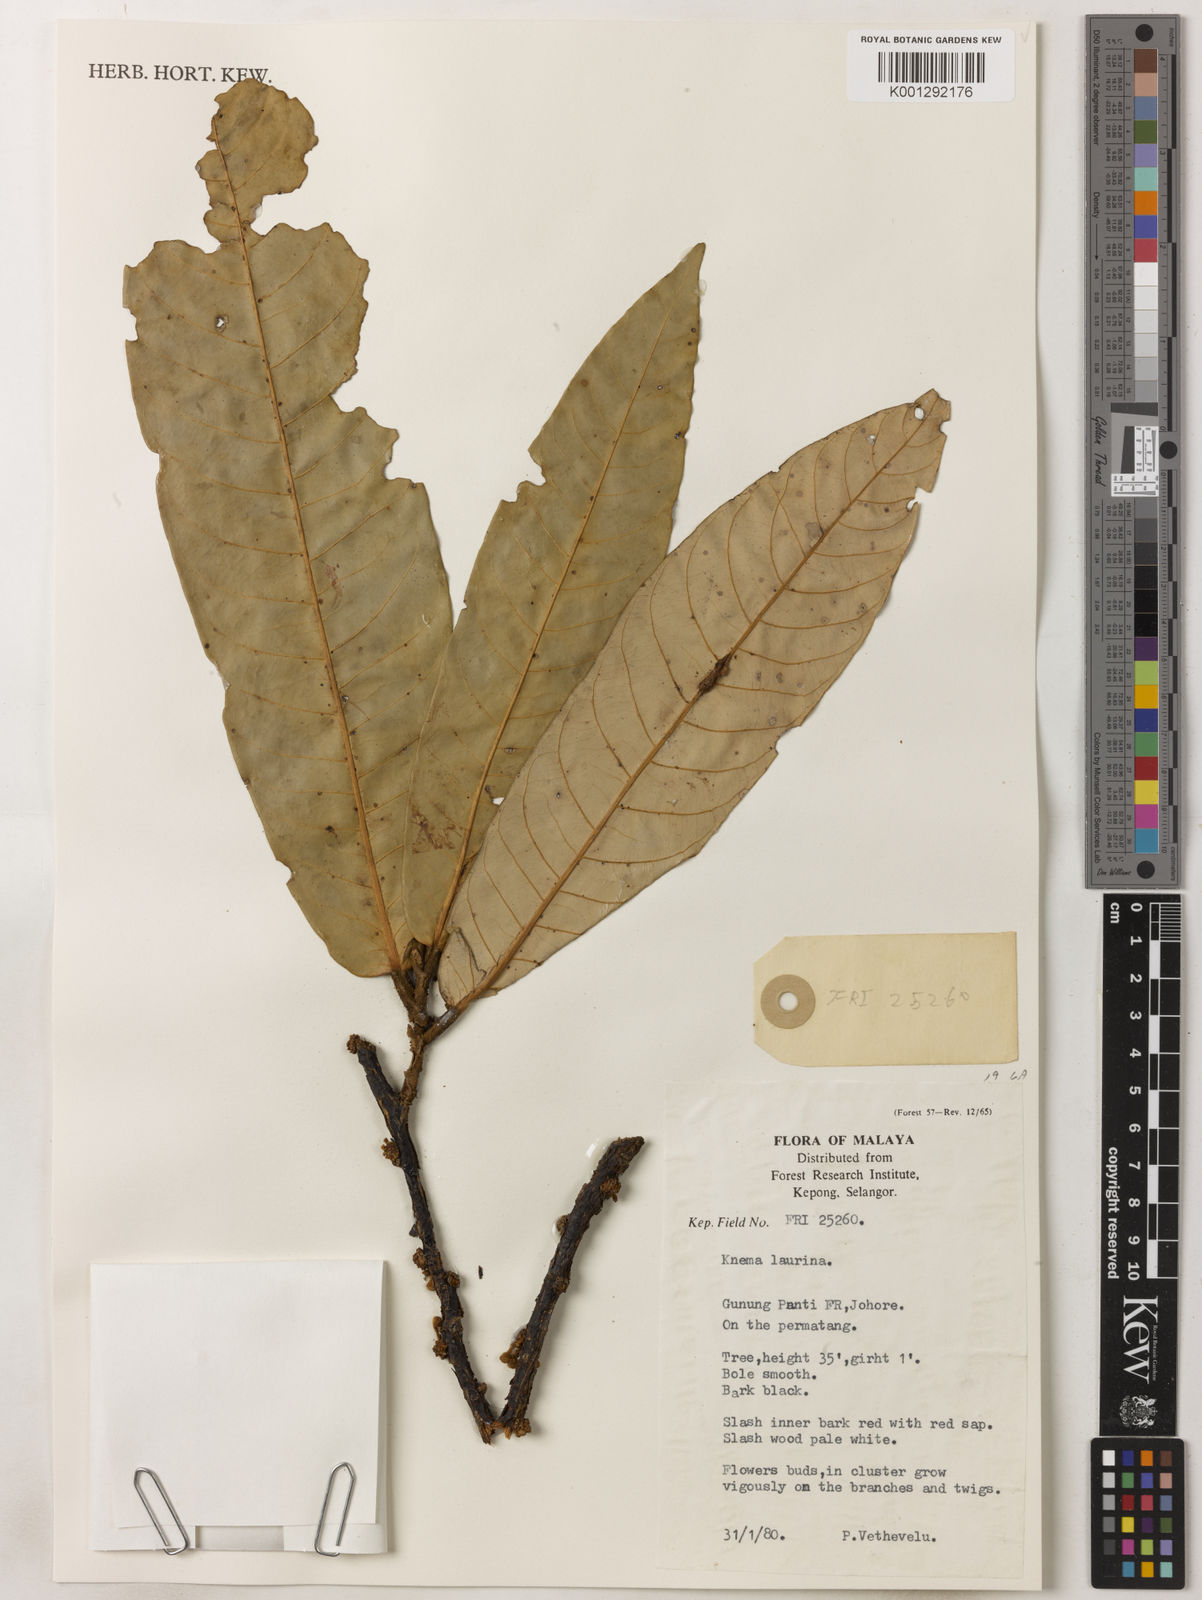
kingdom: Plantae
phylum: Tracheophyta
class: Magnoliopsida
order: Magnoliales
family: Myristicaceae
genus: Knema
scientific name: Knema laurina
